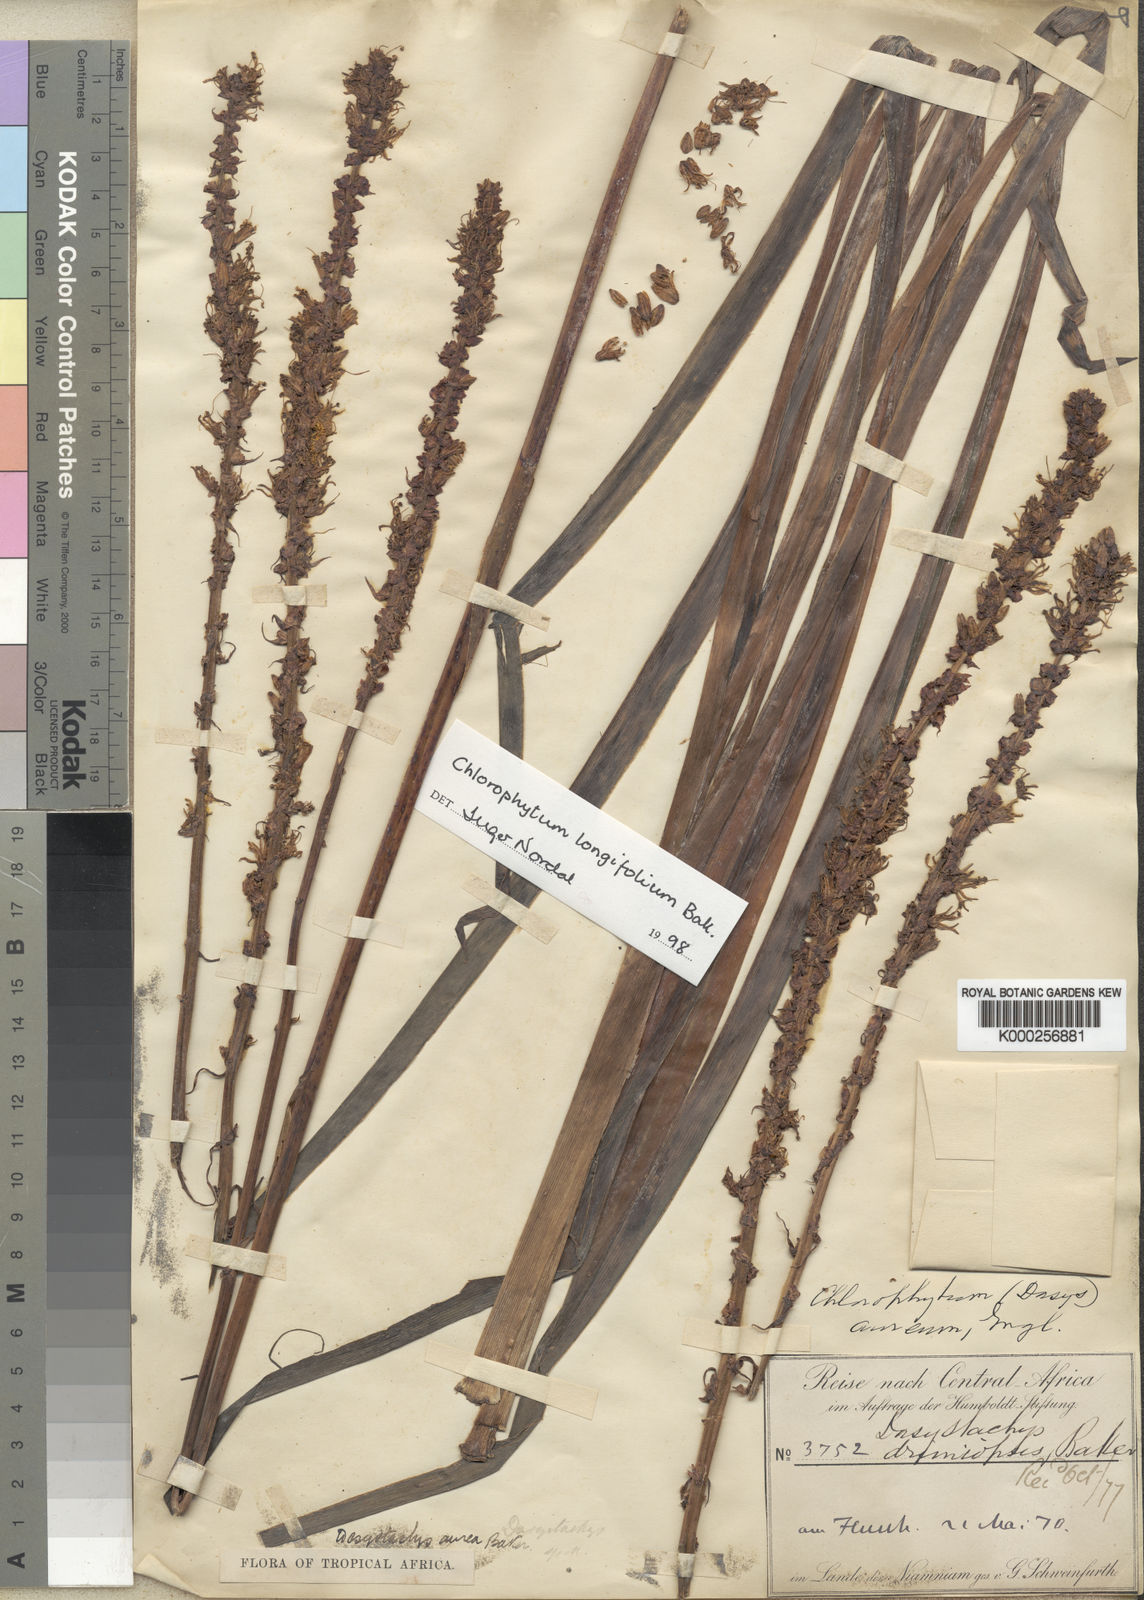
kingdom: Plantae
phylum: Tracheophyta
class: Liliopsida
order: Asparagales
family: Asparagaceae
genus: Chlorophytum
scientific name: Chlorophytum longifolium
